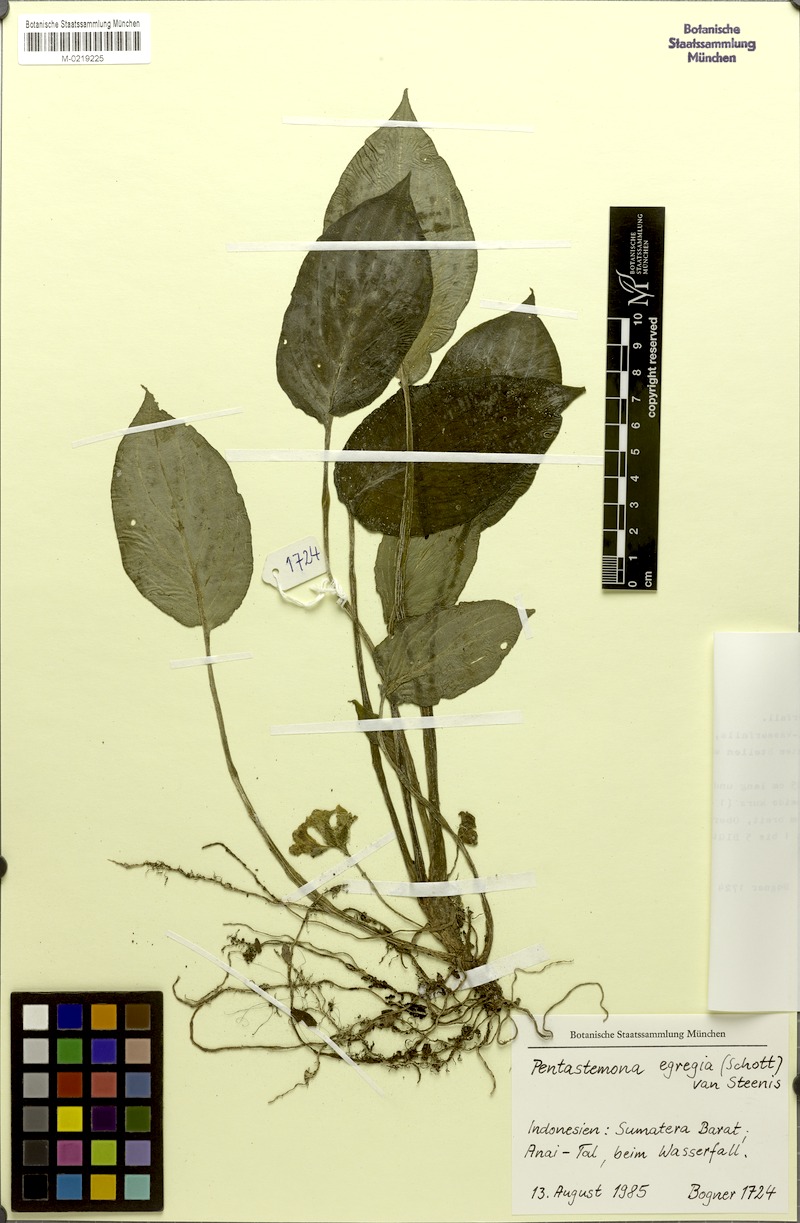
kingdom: Plantae
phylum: Tracheophyta
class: Liliopsida
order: Pandanales
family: Stemonaceae
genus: Pentastemona
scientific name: Pentastemona egregia
